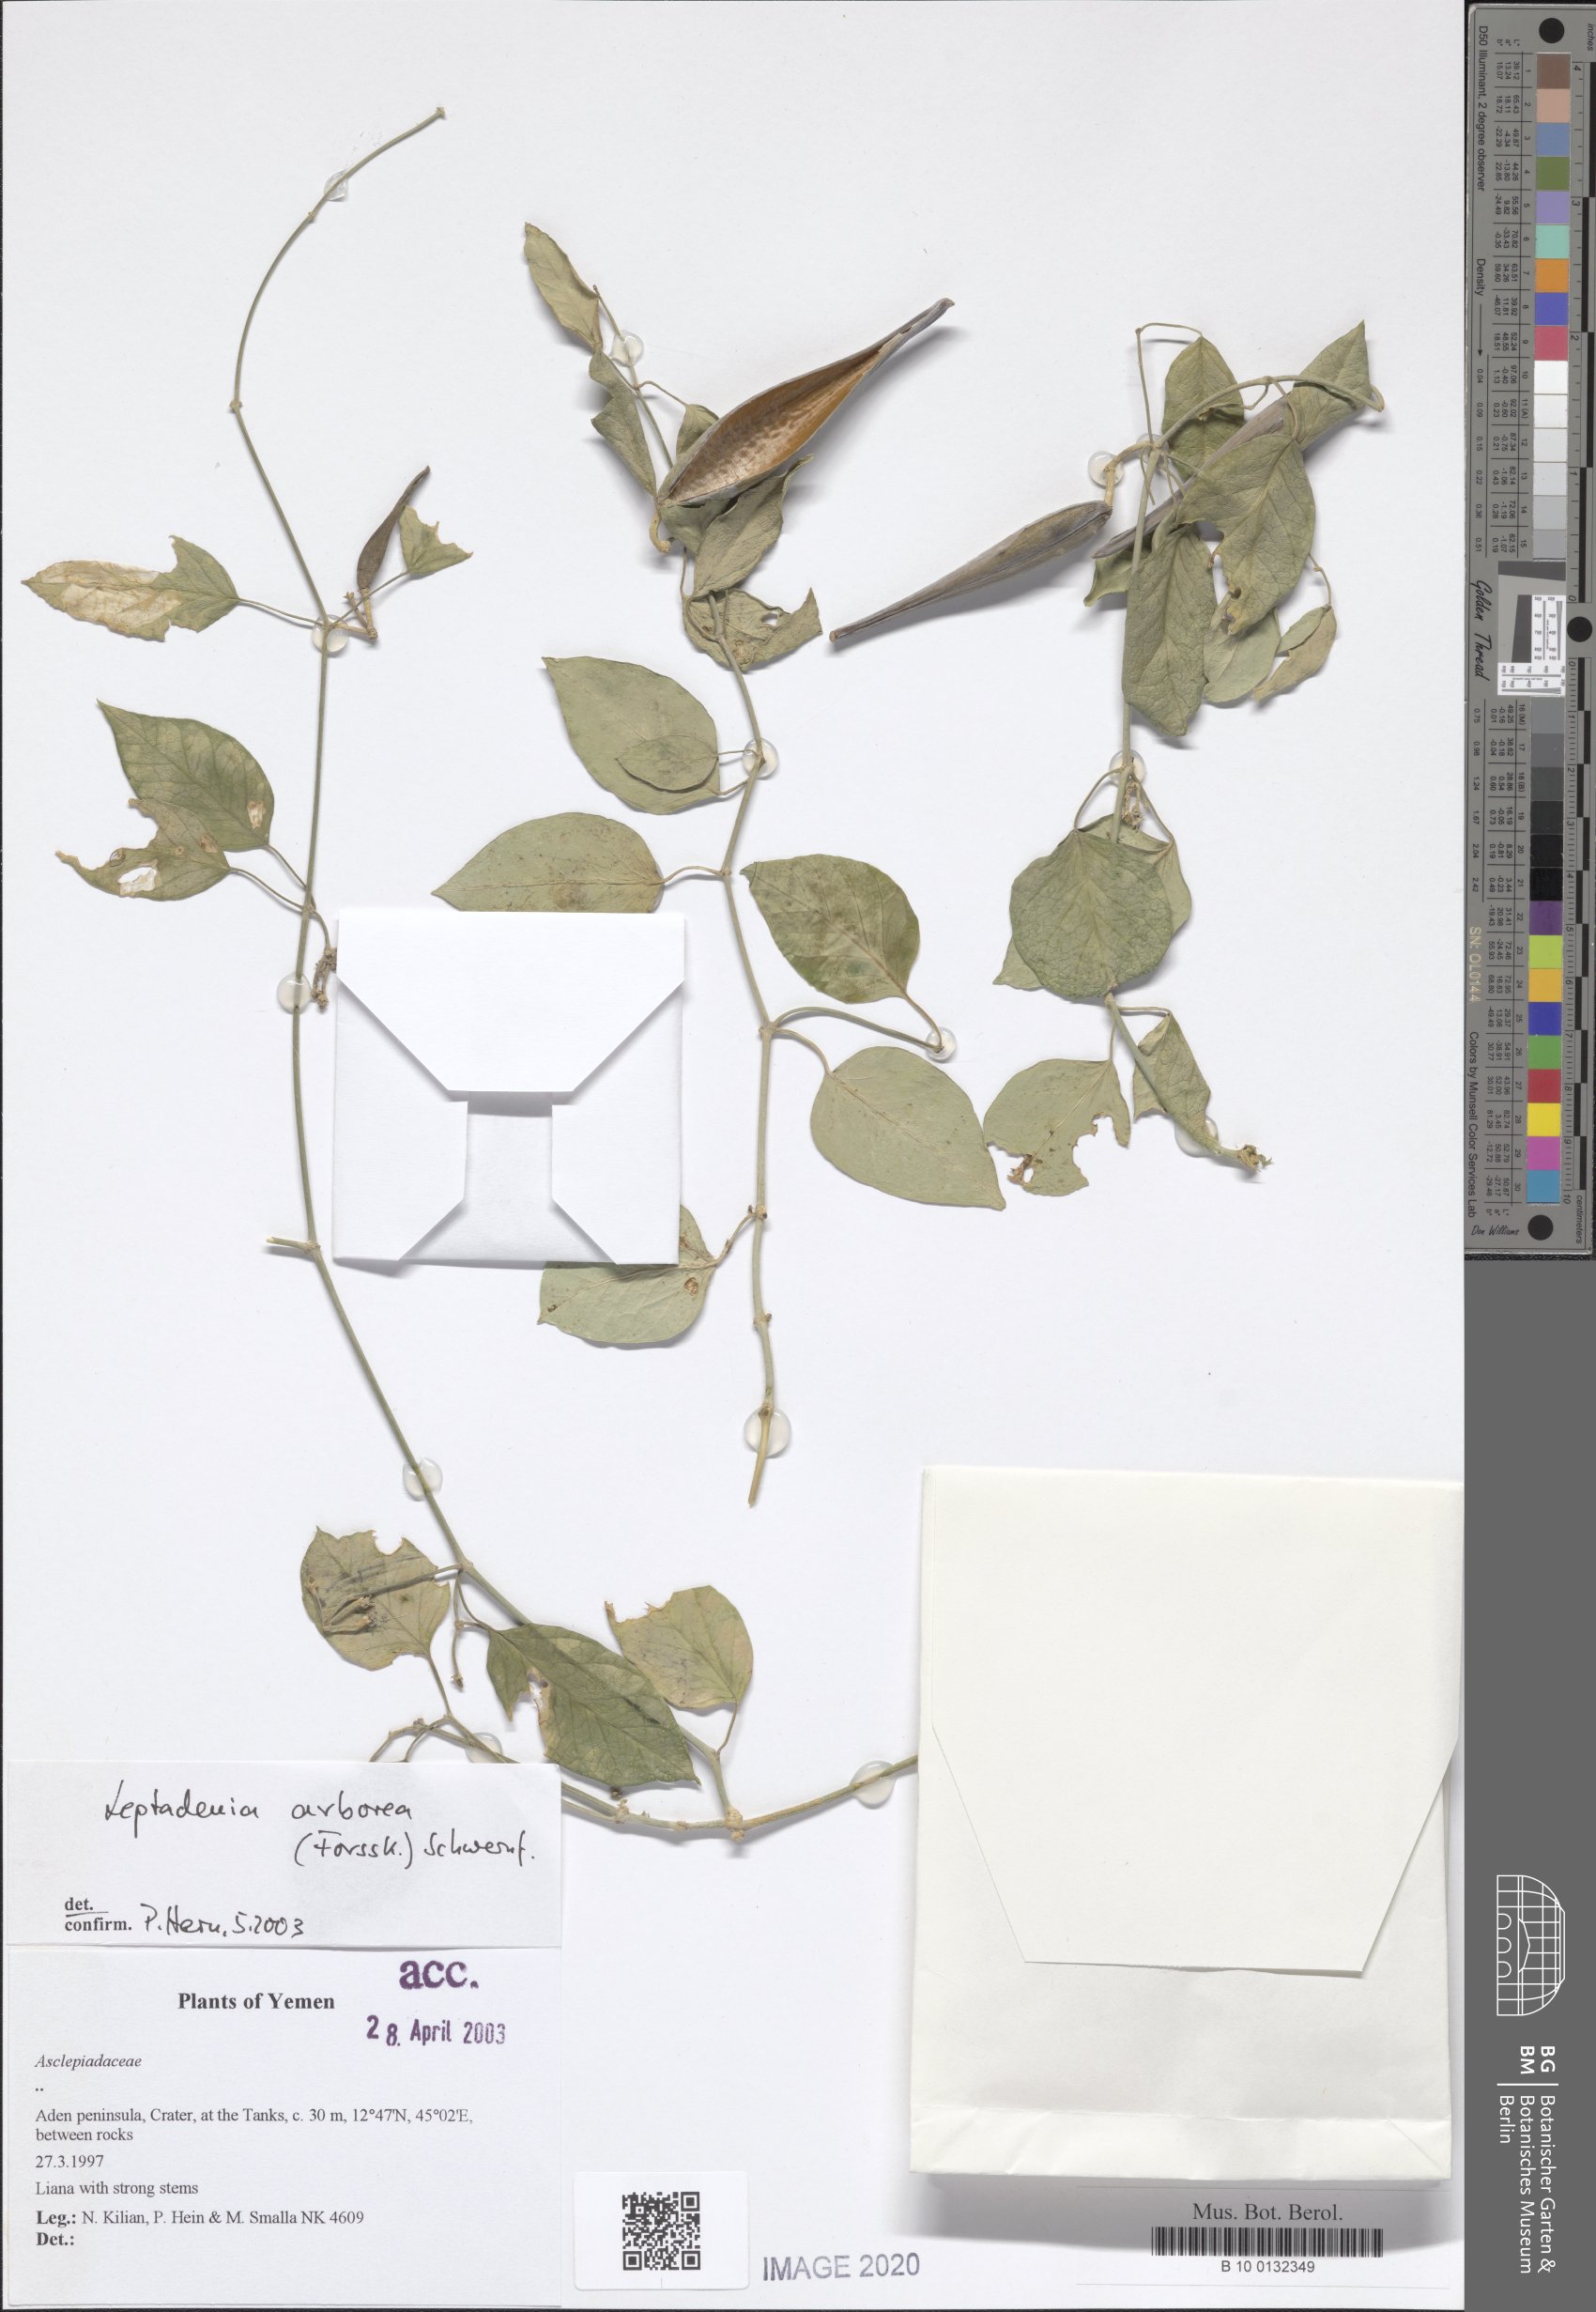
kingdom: Plantae
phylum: Tracheophyta
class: Magnoliopsida
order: Gentianales
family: Apocynaceae
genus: Leptadenia
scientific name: Leptadenia arborea
